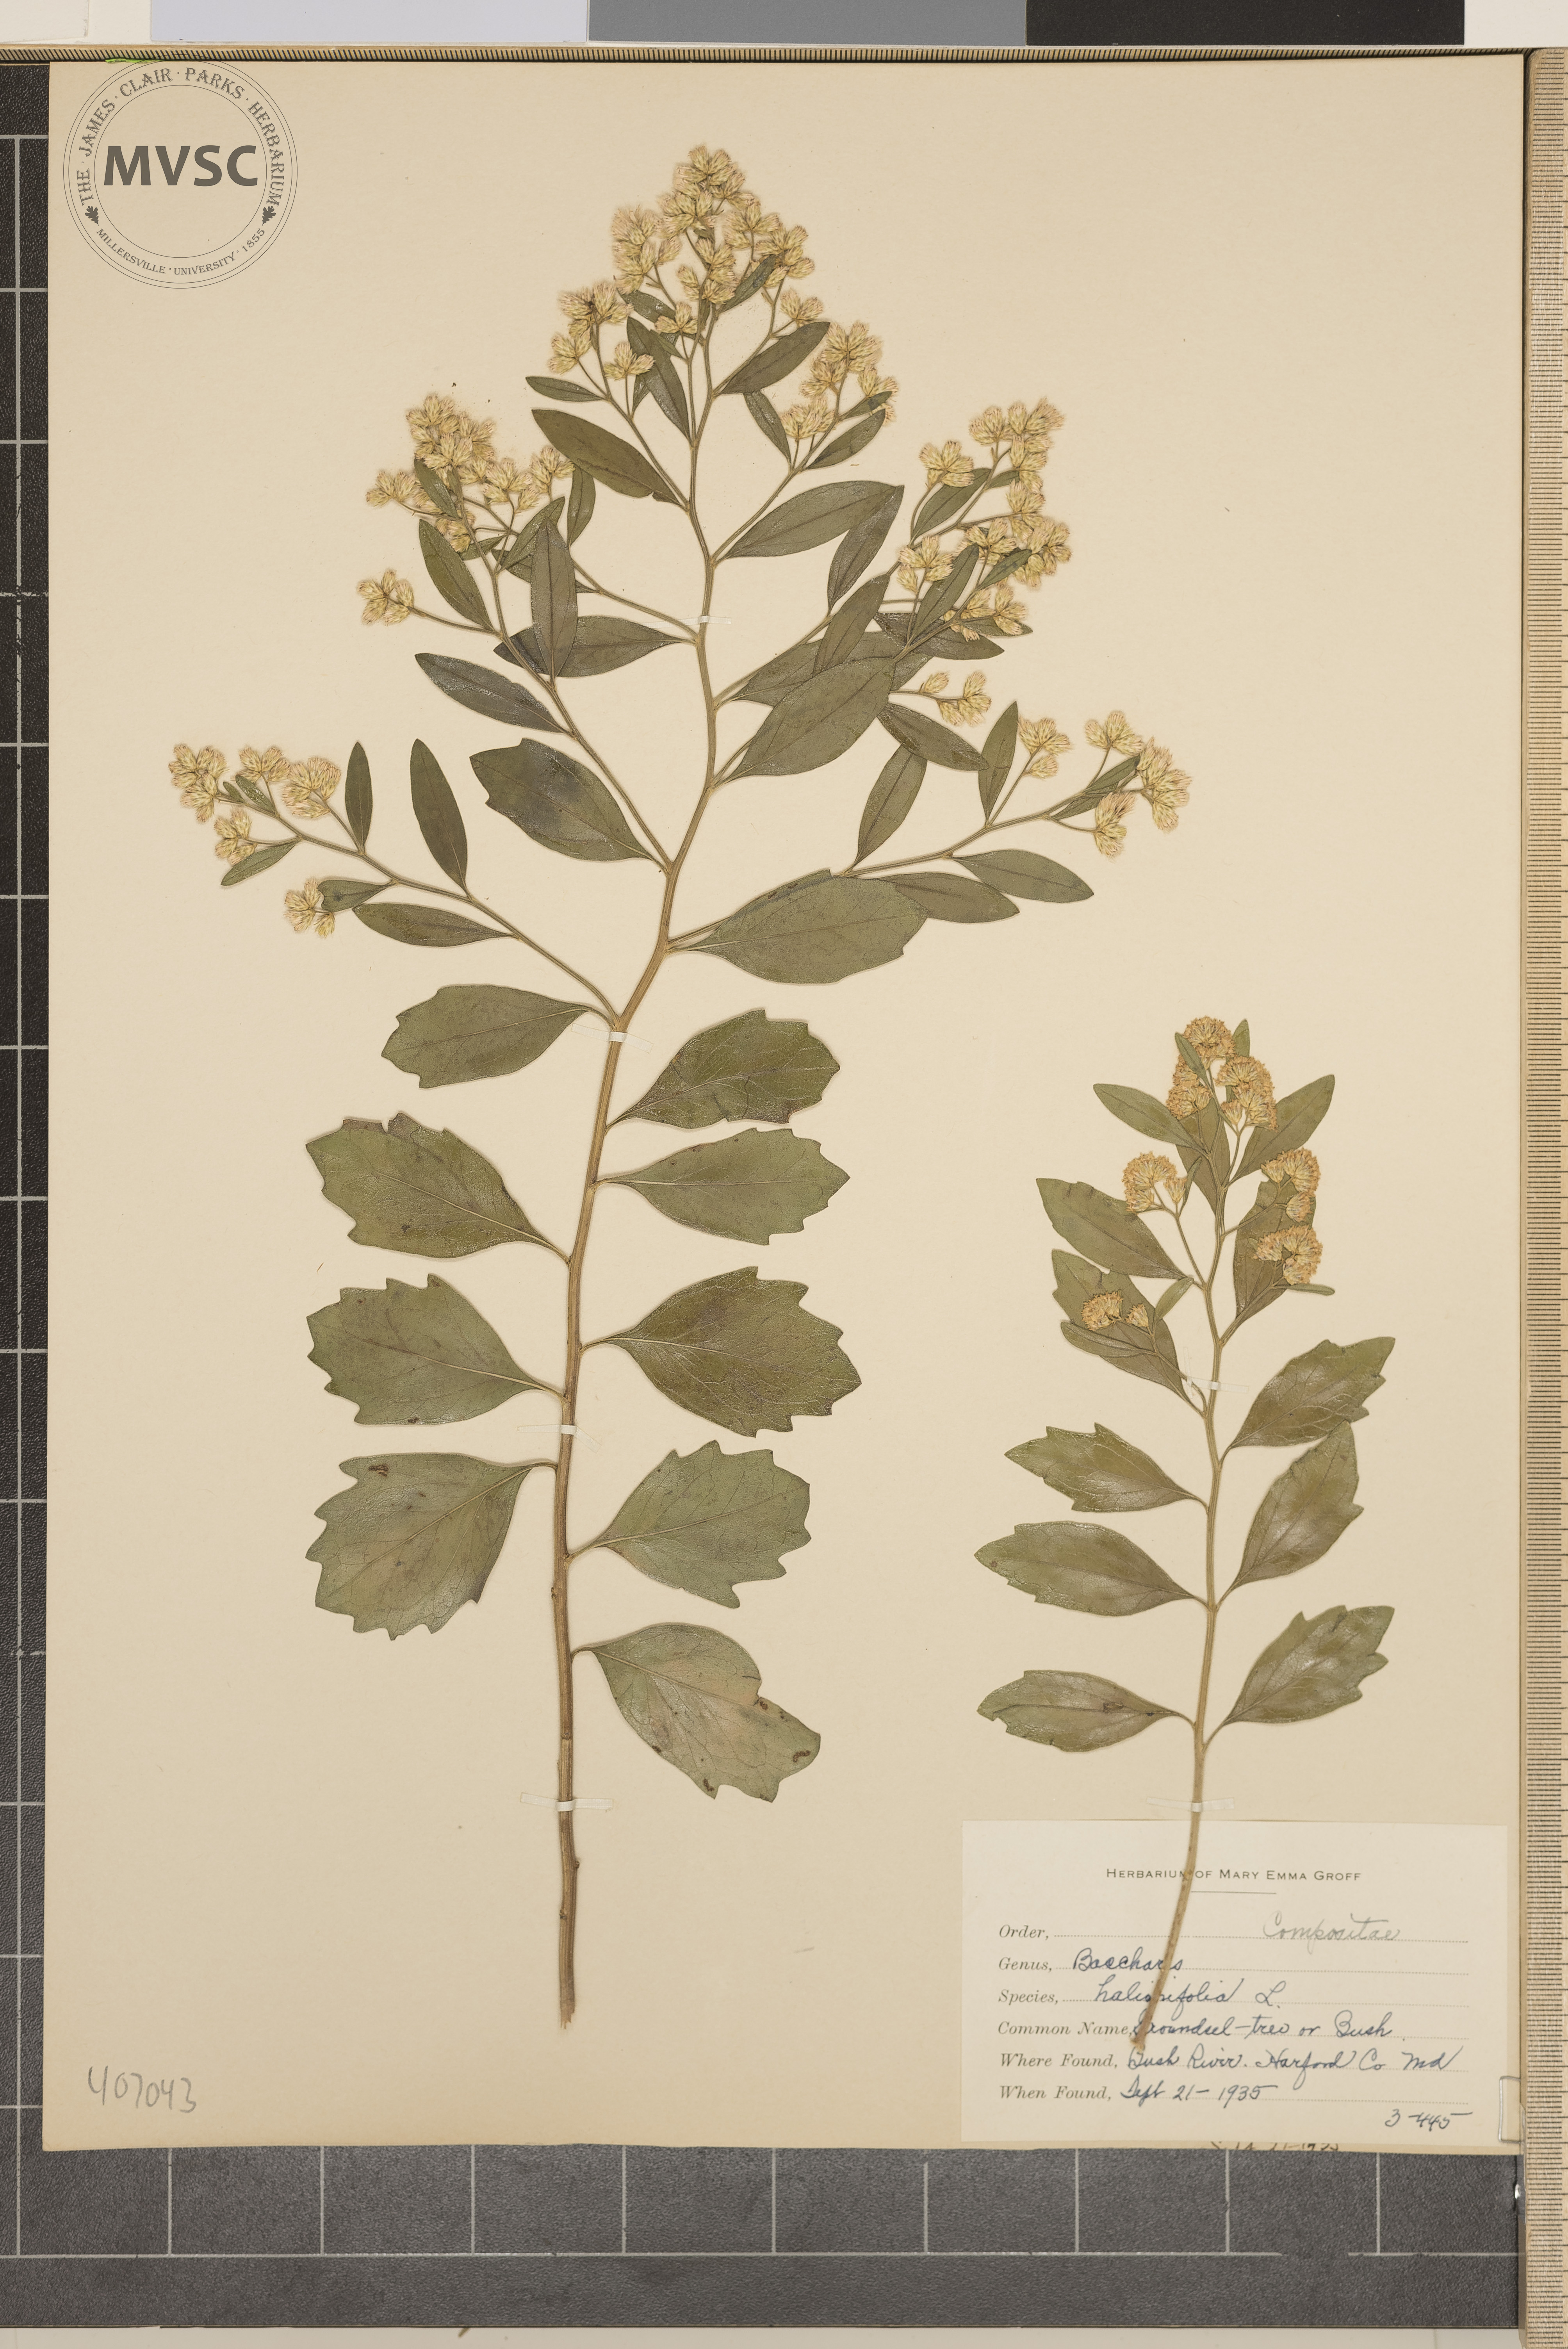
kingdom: Plantae
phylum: Tracheophyta
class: Magnoliopsida
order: Asterales
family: Asteraceae
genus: Baccharis
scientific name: Baccharis halimifolia
